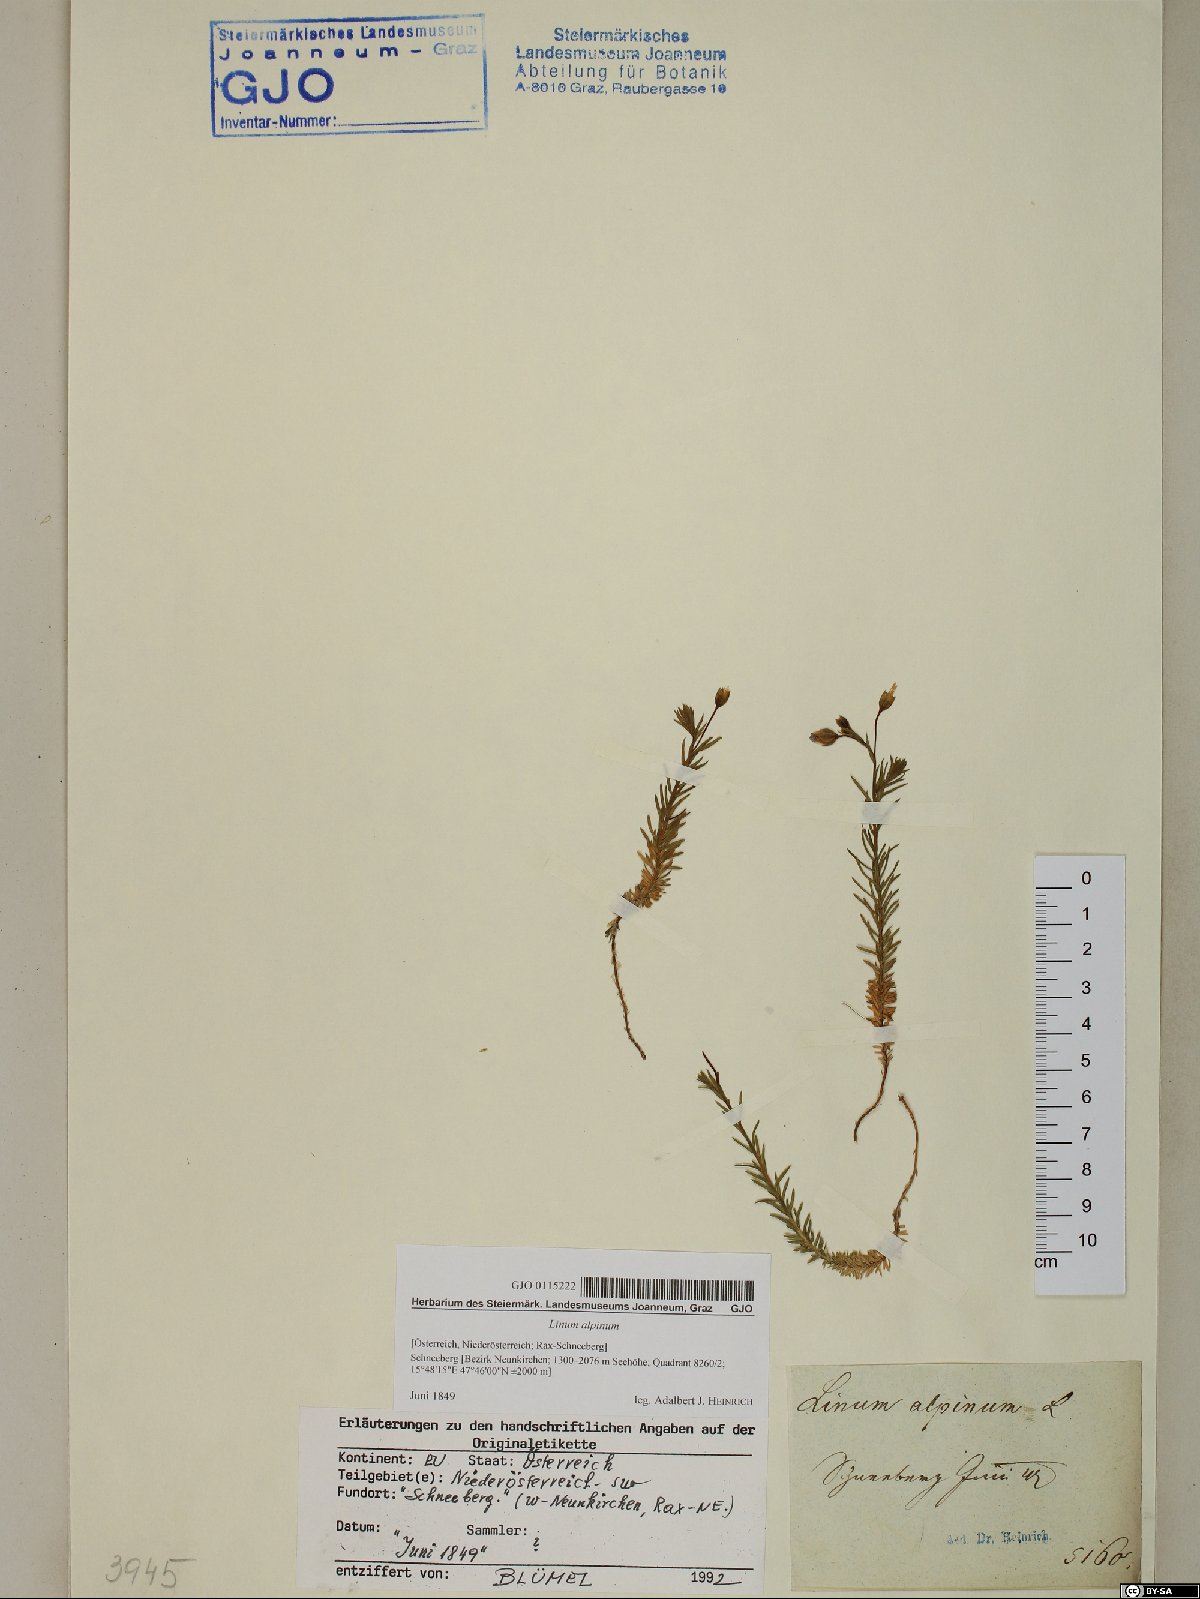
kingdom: Plantae
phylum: Tracheophyta
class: Magnoliopsida
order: Malpighiales
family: Linaceae
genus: Linum
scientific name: Linum alpinum
